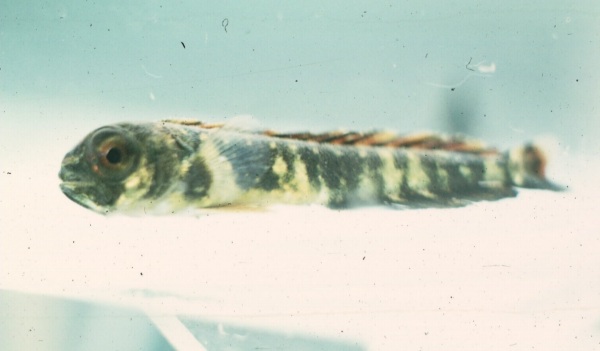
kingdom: Animalia
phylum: Chordata
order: Perciformes
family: Coryphaenidae
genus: Coryphaena
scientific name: Coryphaena hippurus
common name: Dolphin
